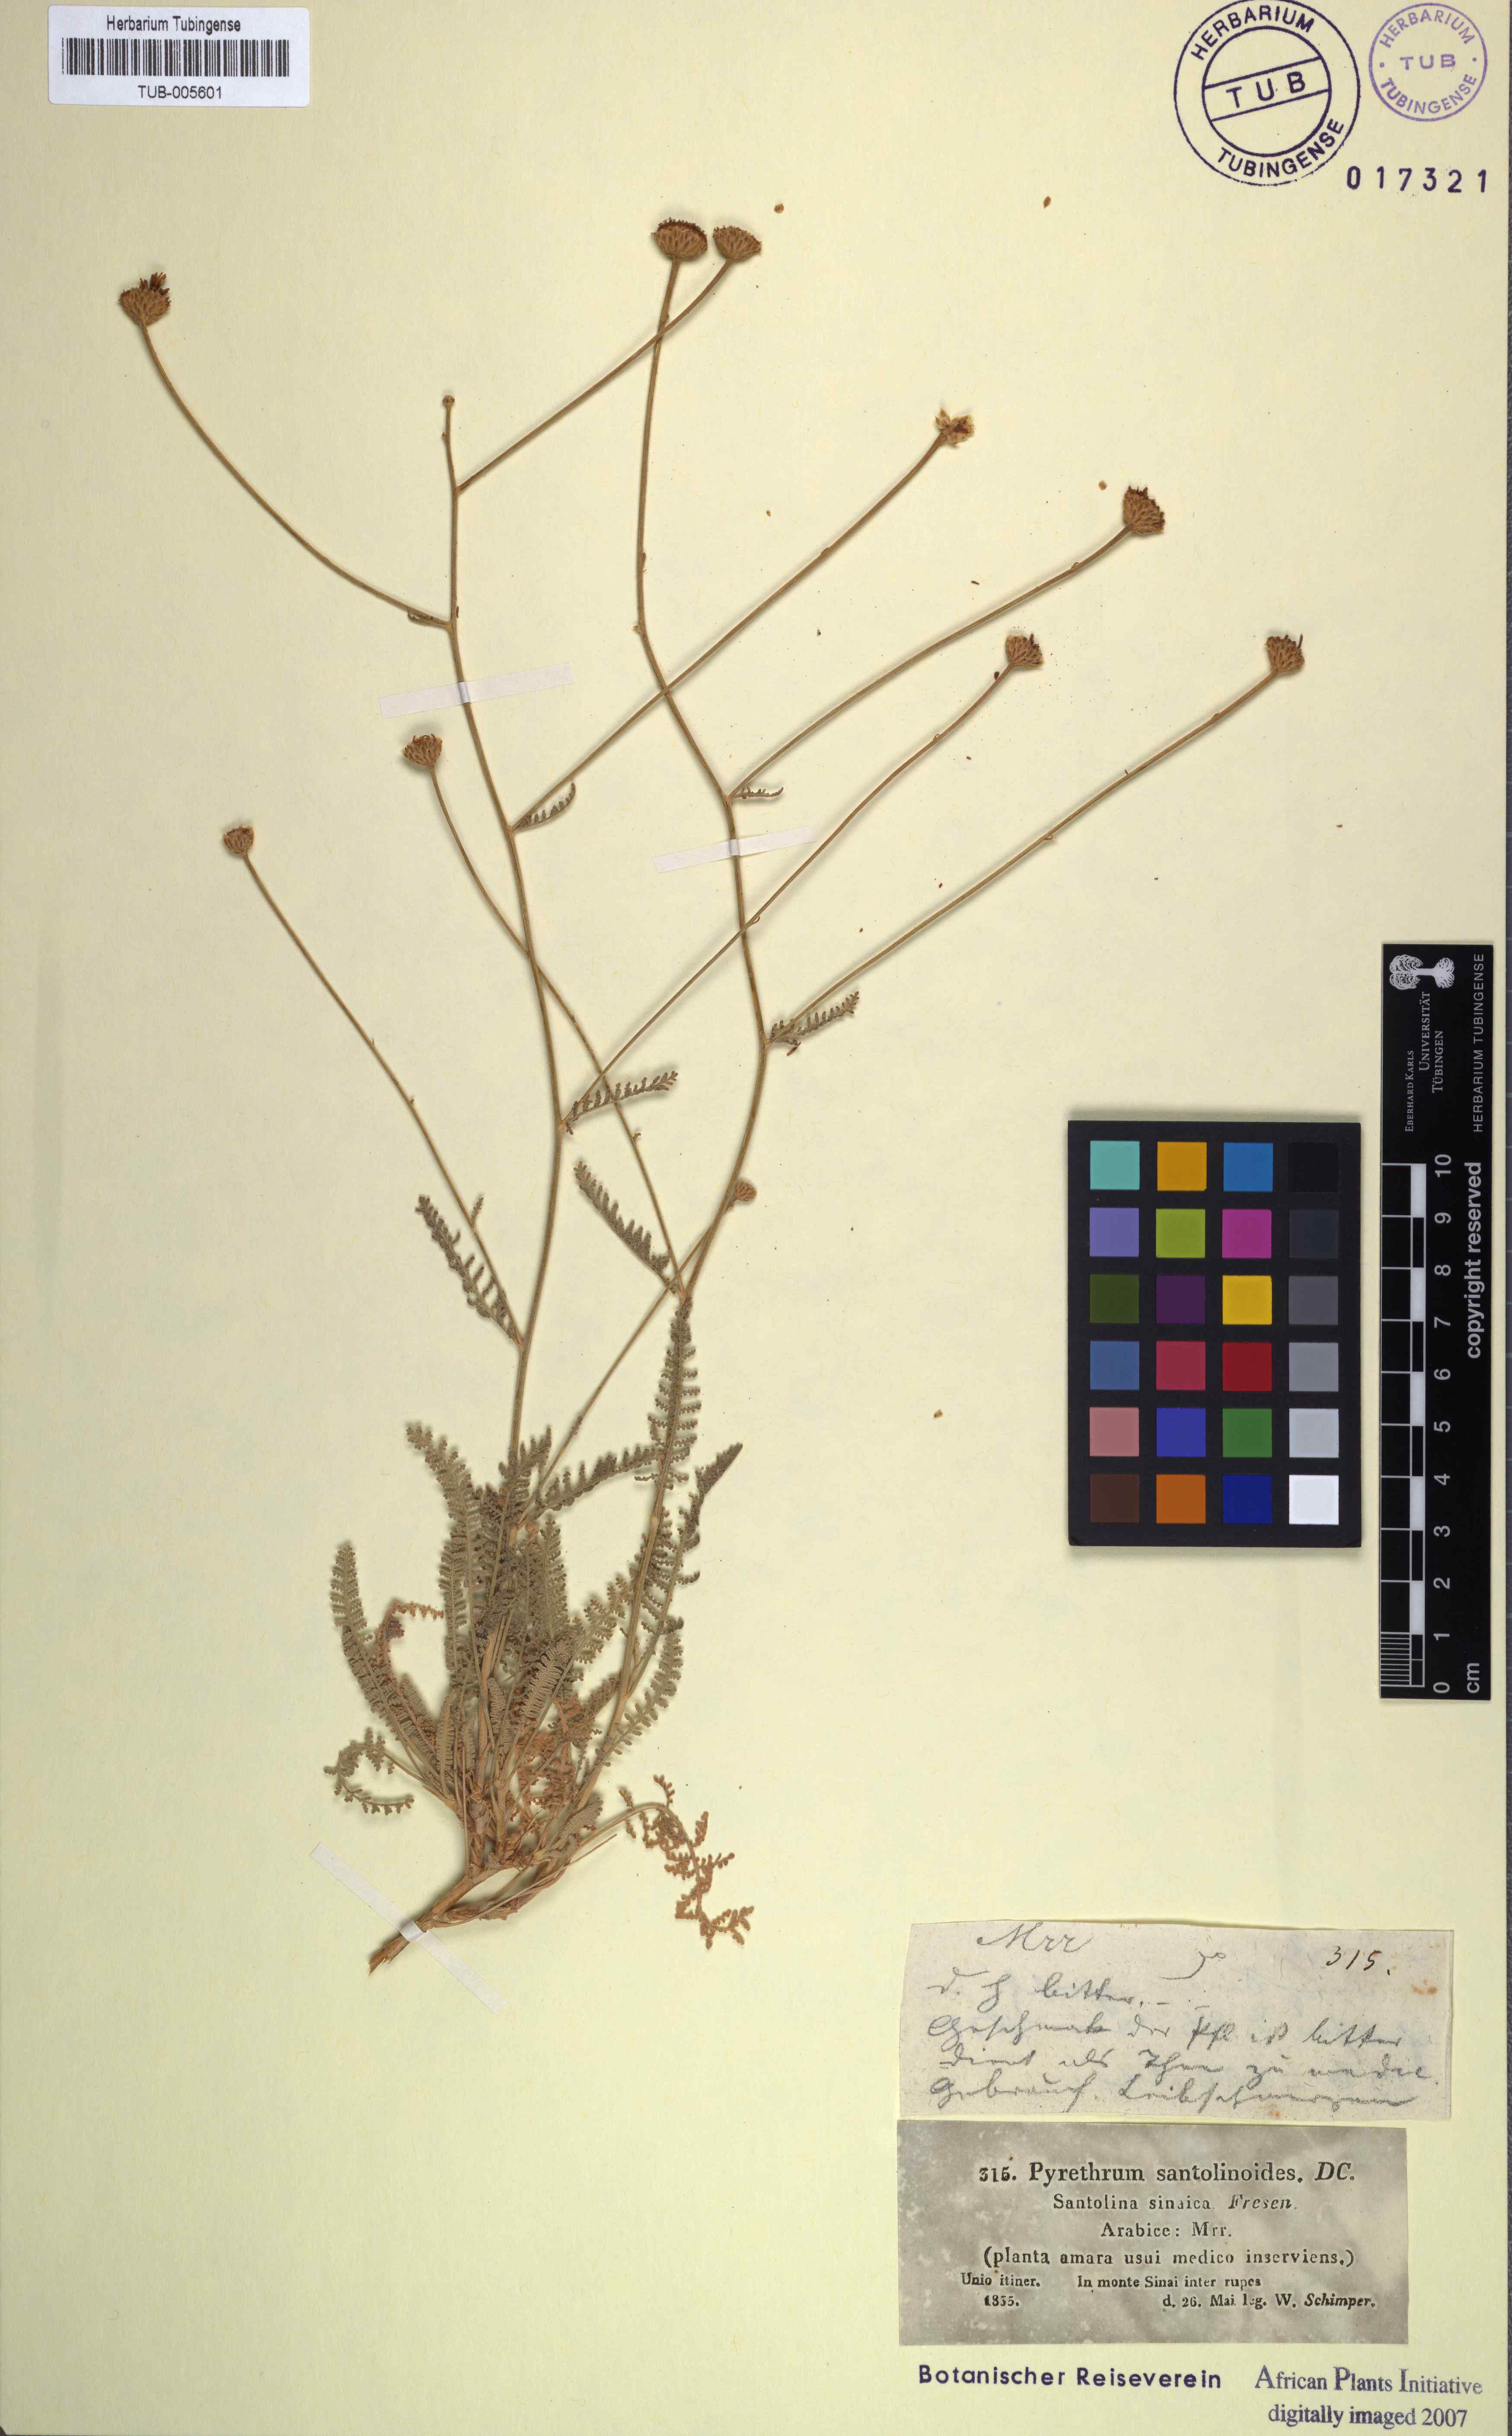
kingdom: Plantae
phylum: Tracheophyta
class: Magnoliopsida
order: Asterales
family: Asteraceae
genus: Tanacetum
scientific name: Tanacetum sinaicum
